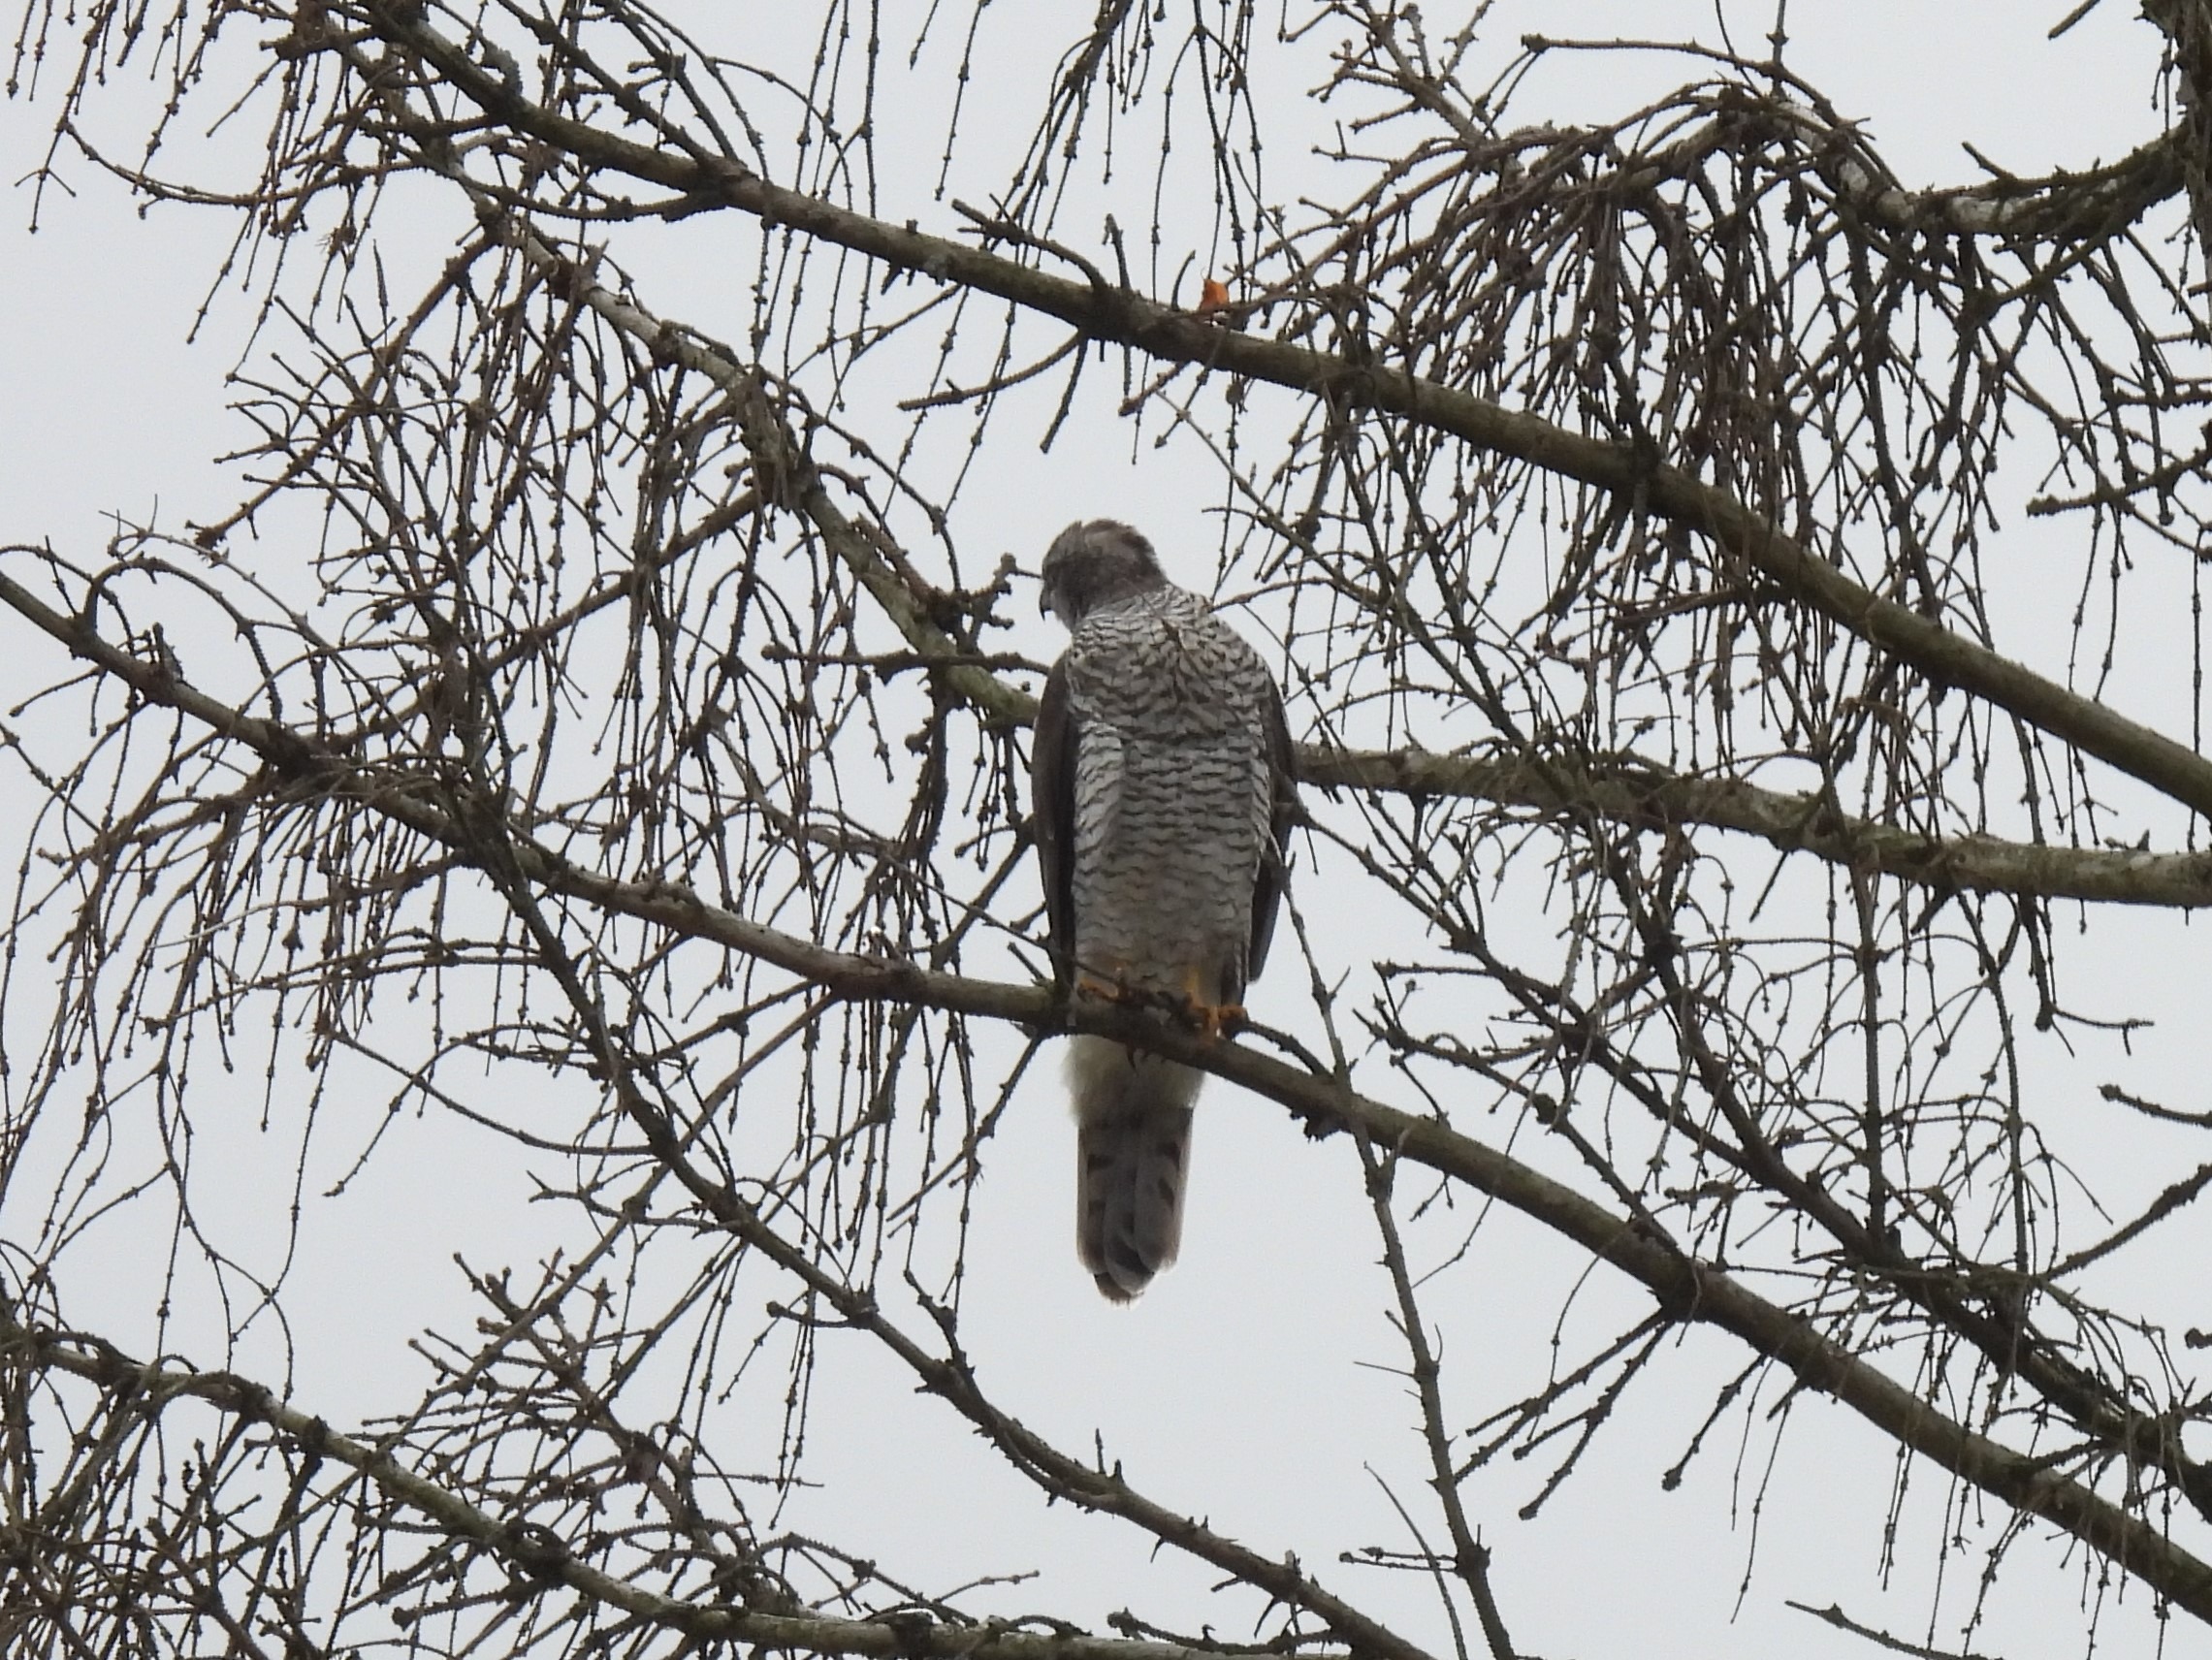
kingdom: Animalia
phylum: Chordata
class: Aves
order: Accipitriformes
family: Accipitridae
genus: Accipiter
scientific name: Accipiter gentilis
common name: Duehøg
